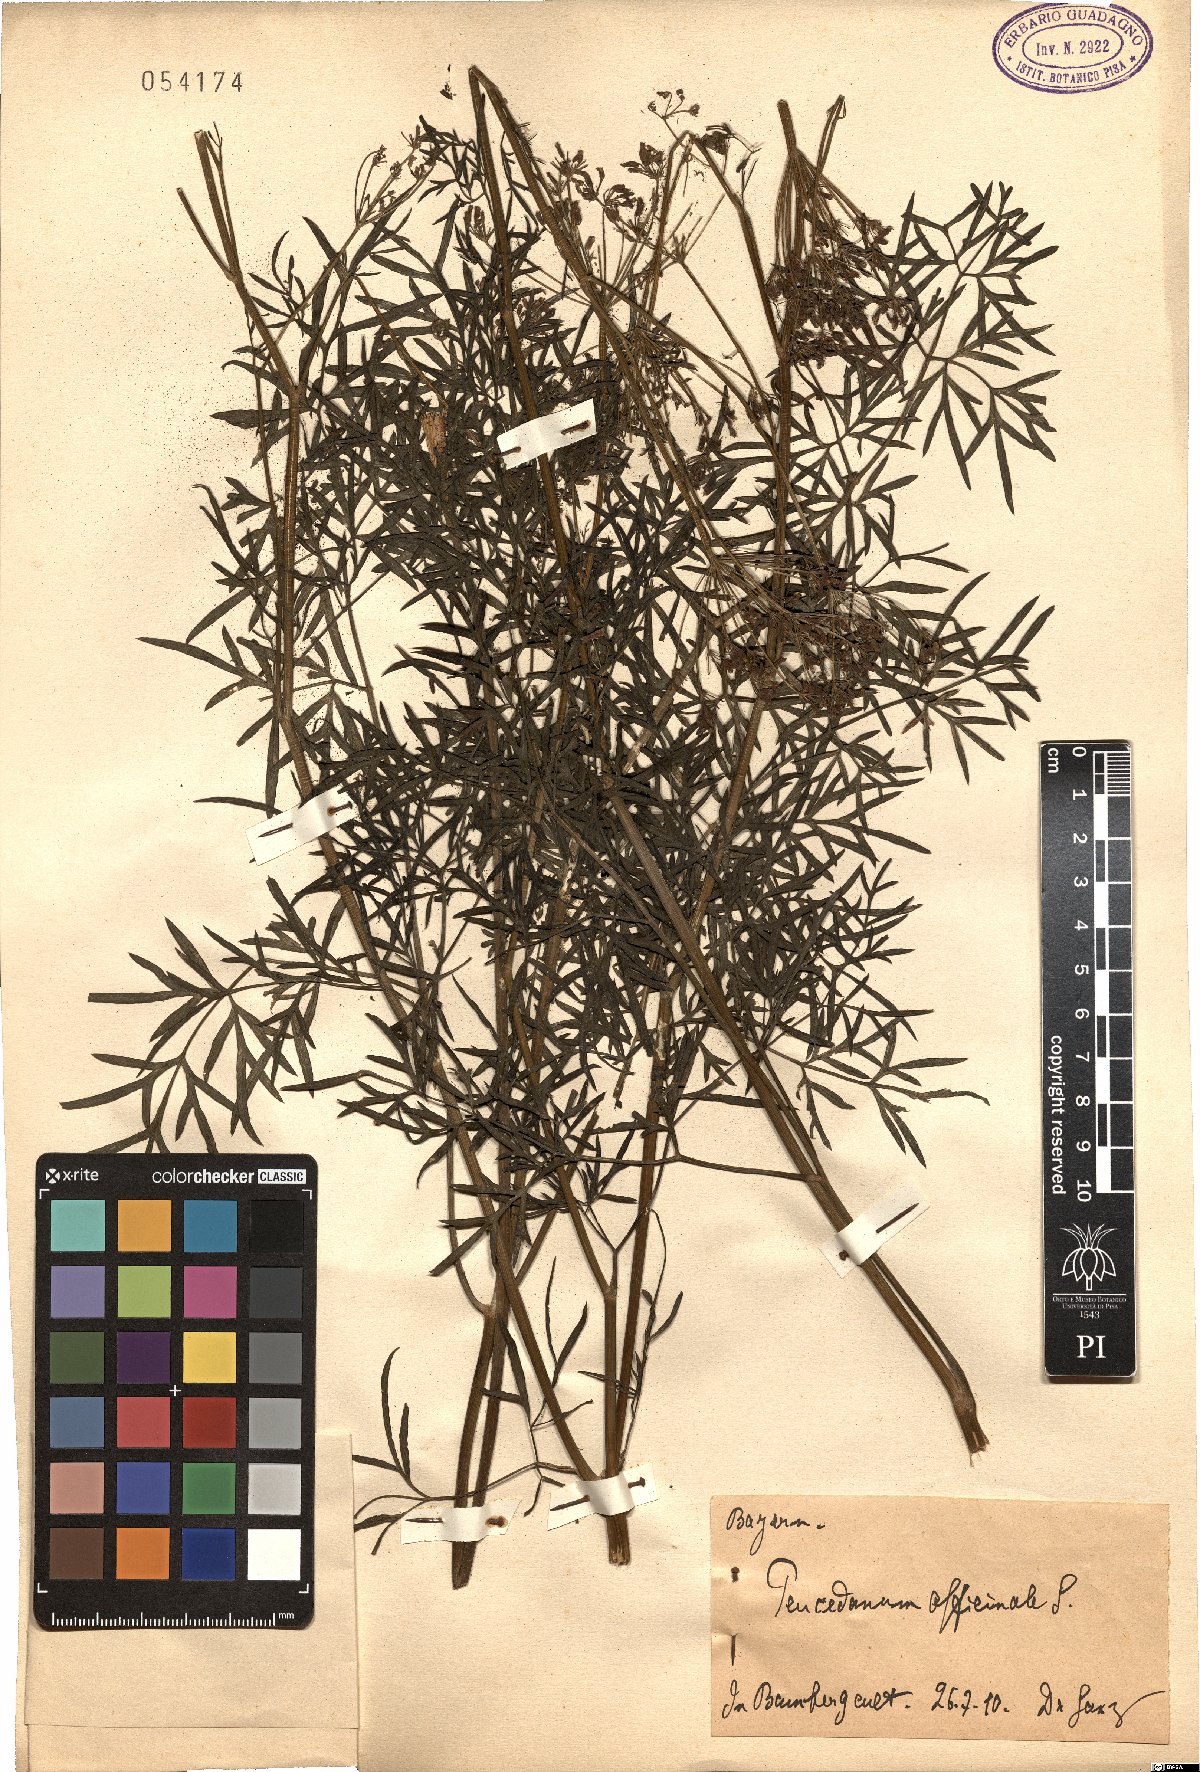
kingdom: Plantae
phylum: Tracheophyta
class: Magnoliopsida
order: Apiales
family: Apiaceae
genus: Peucedanum
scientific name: Peucedanum officinale
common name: Sulphurweed
